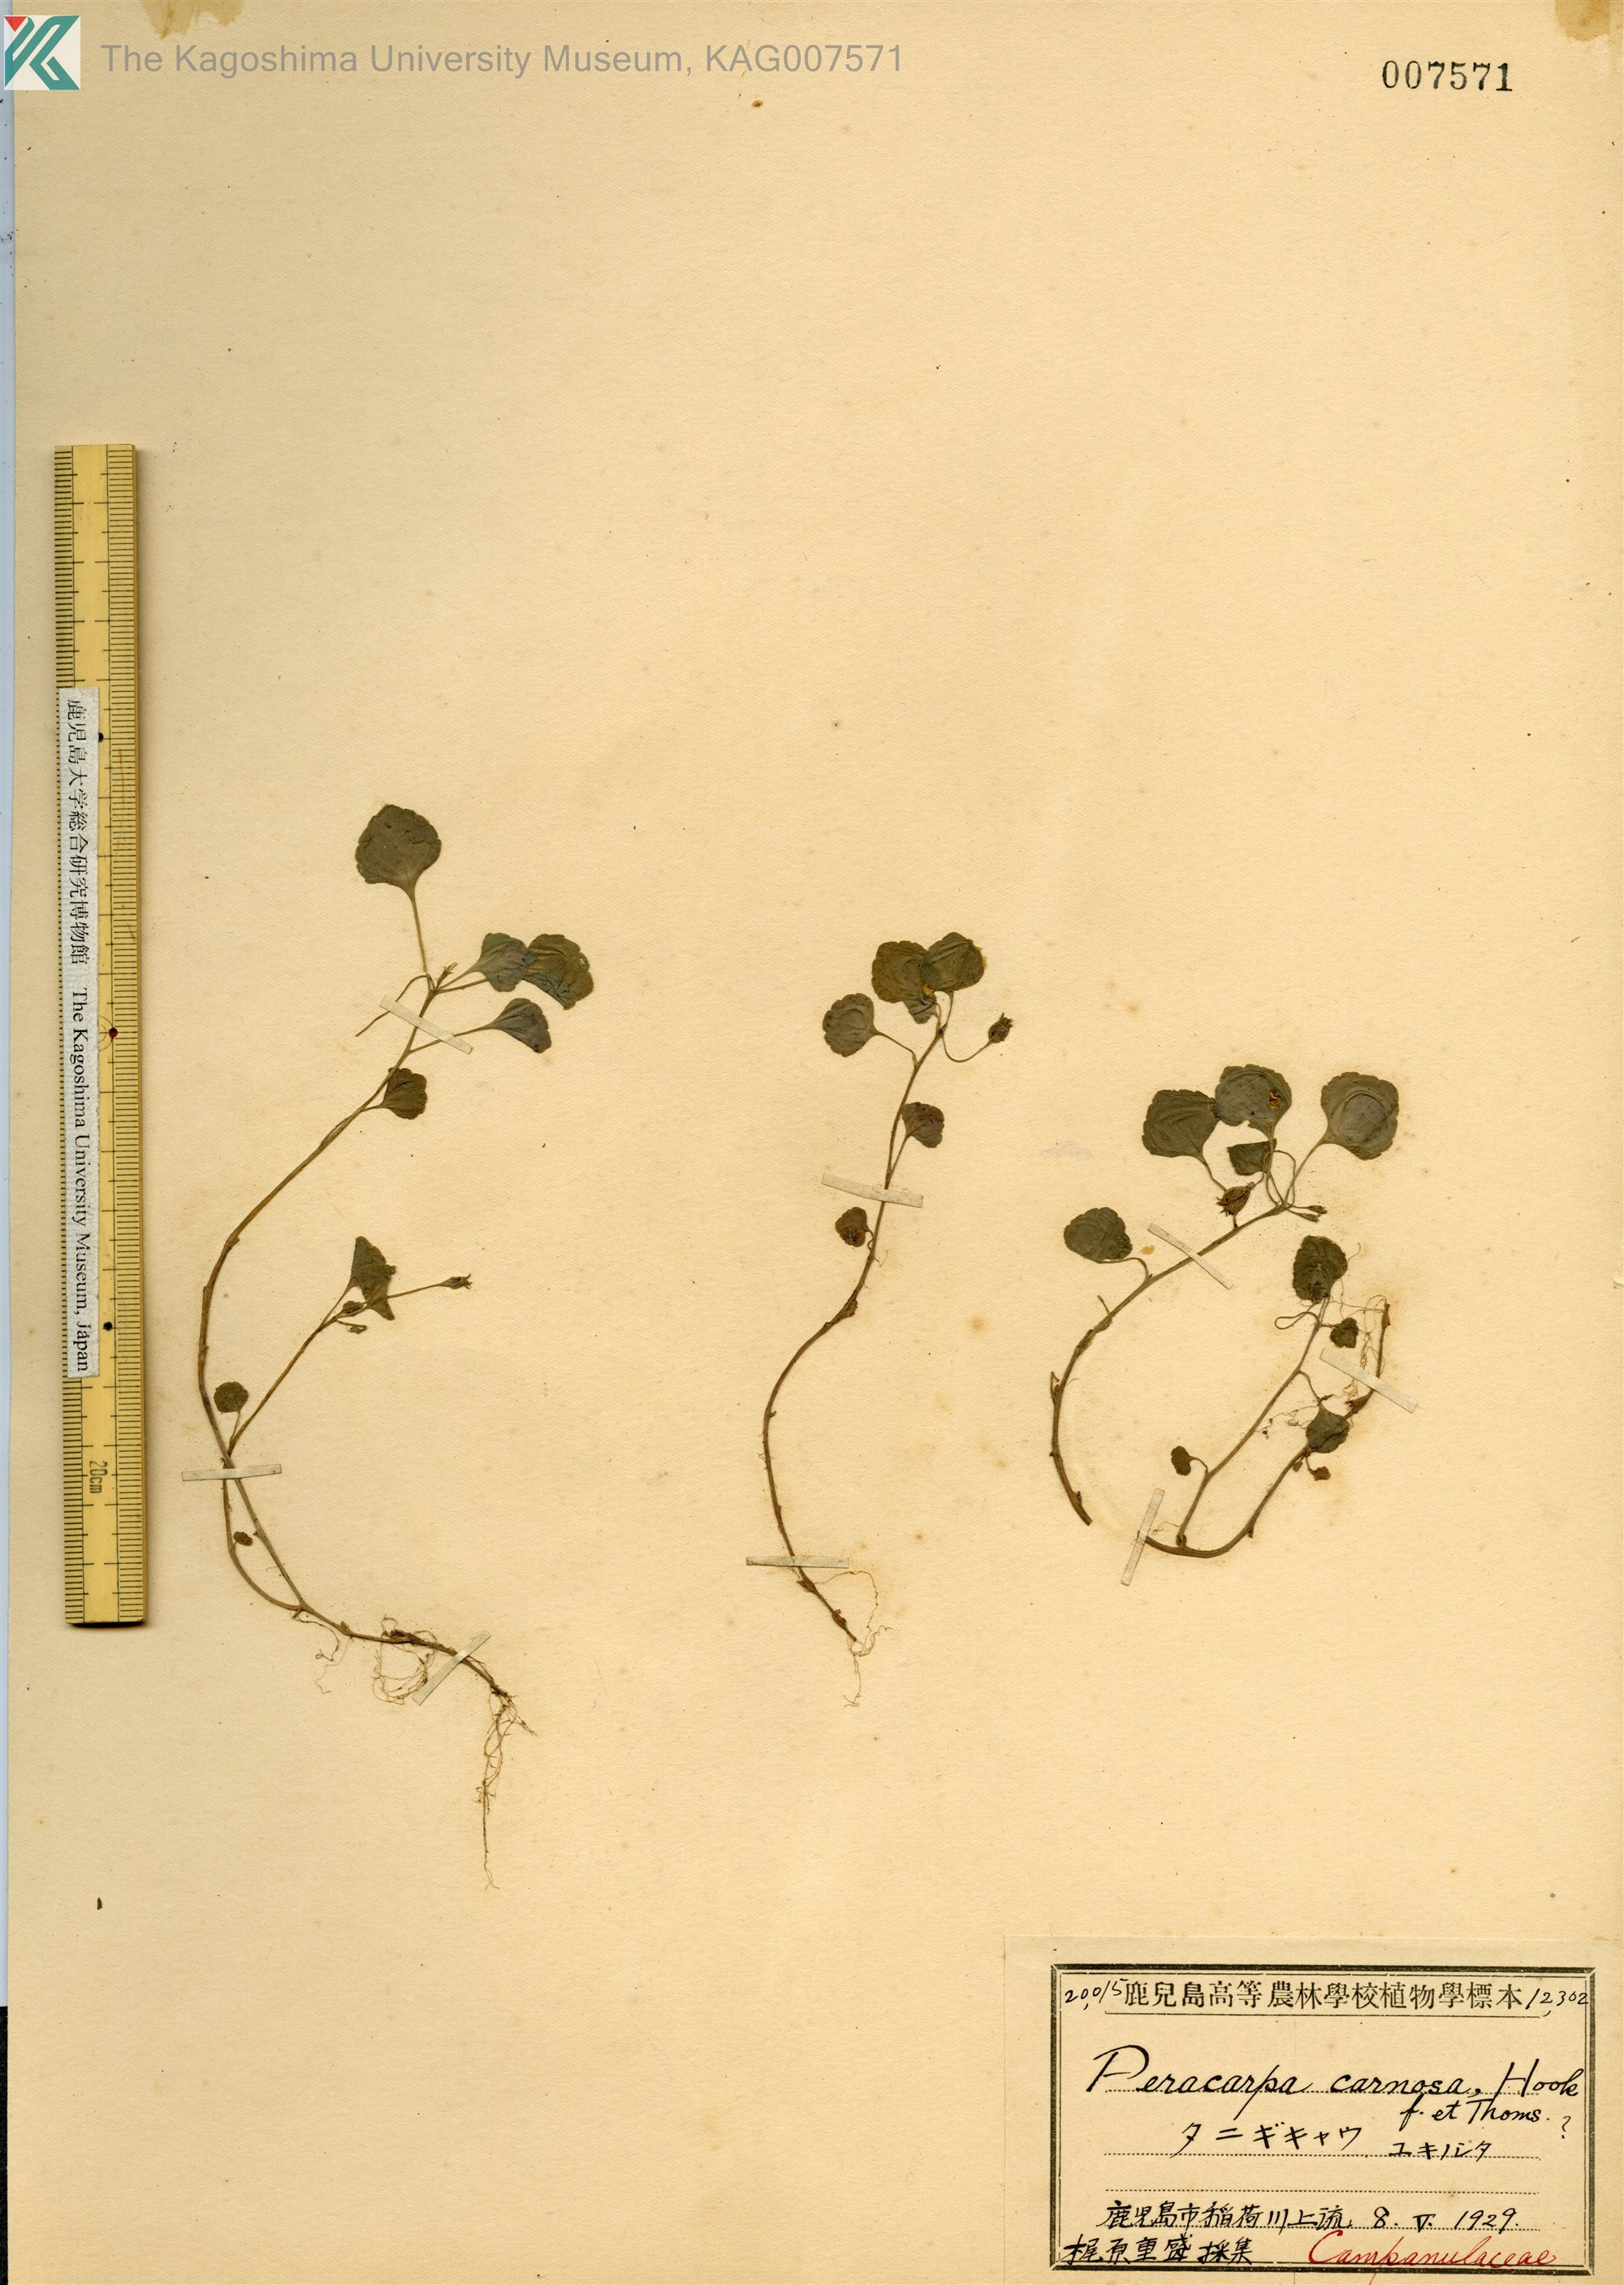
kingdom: Plantae
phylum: Tracheophyta
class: Magnoliopsida
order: Asterales
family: Campanulaceae
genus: Peracarpa
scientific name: Peracarpa carnosa
